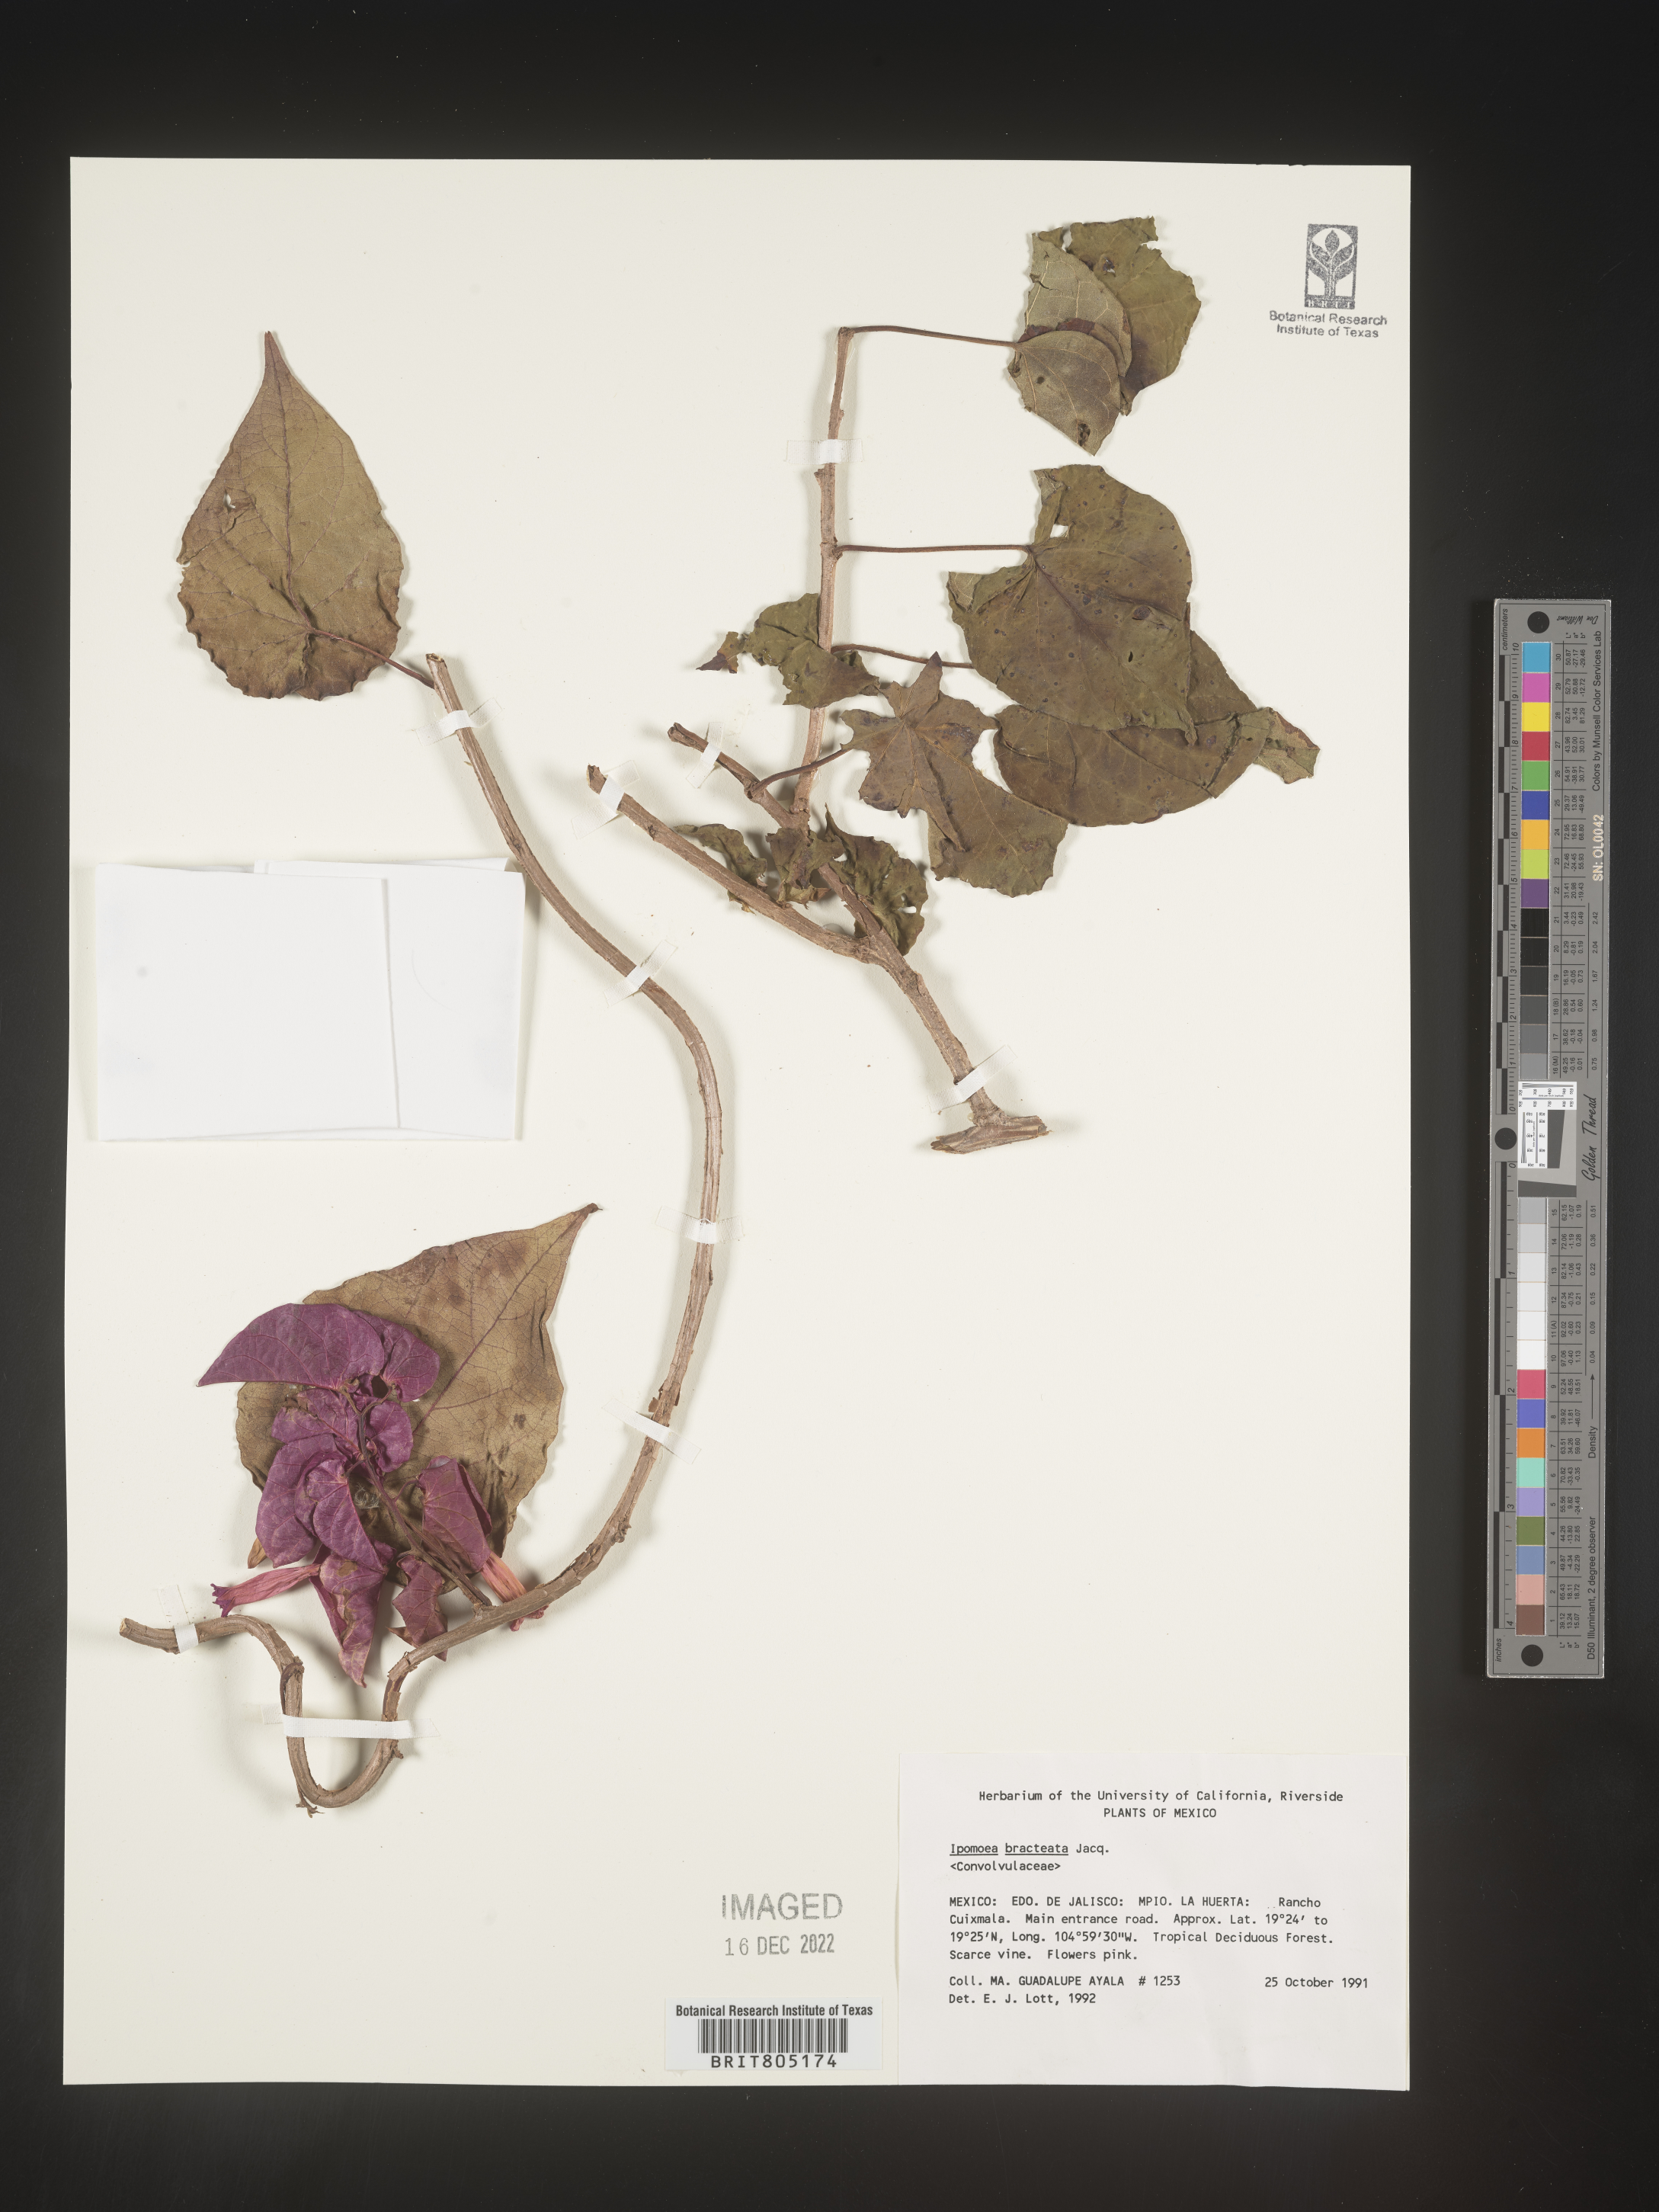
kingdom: Plantae
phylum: Tracheophyta
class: Magnoliopsida
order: Solanales
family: Convolvulaceae
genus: Ipomoea
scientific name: Ipomoea
